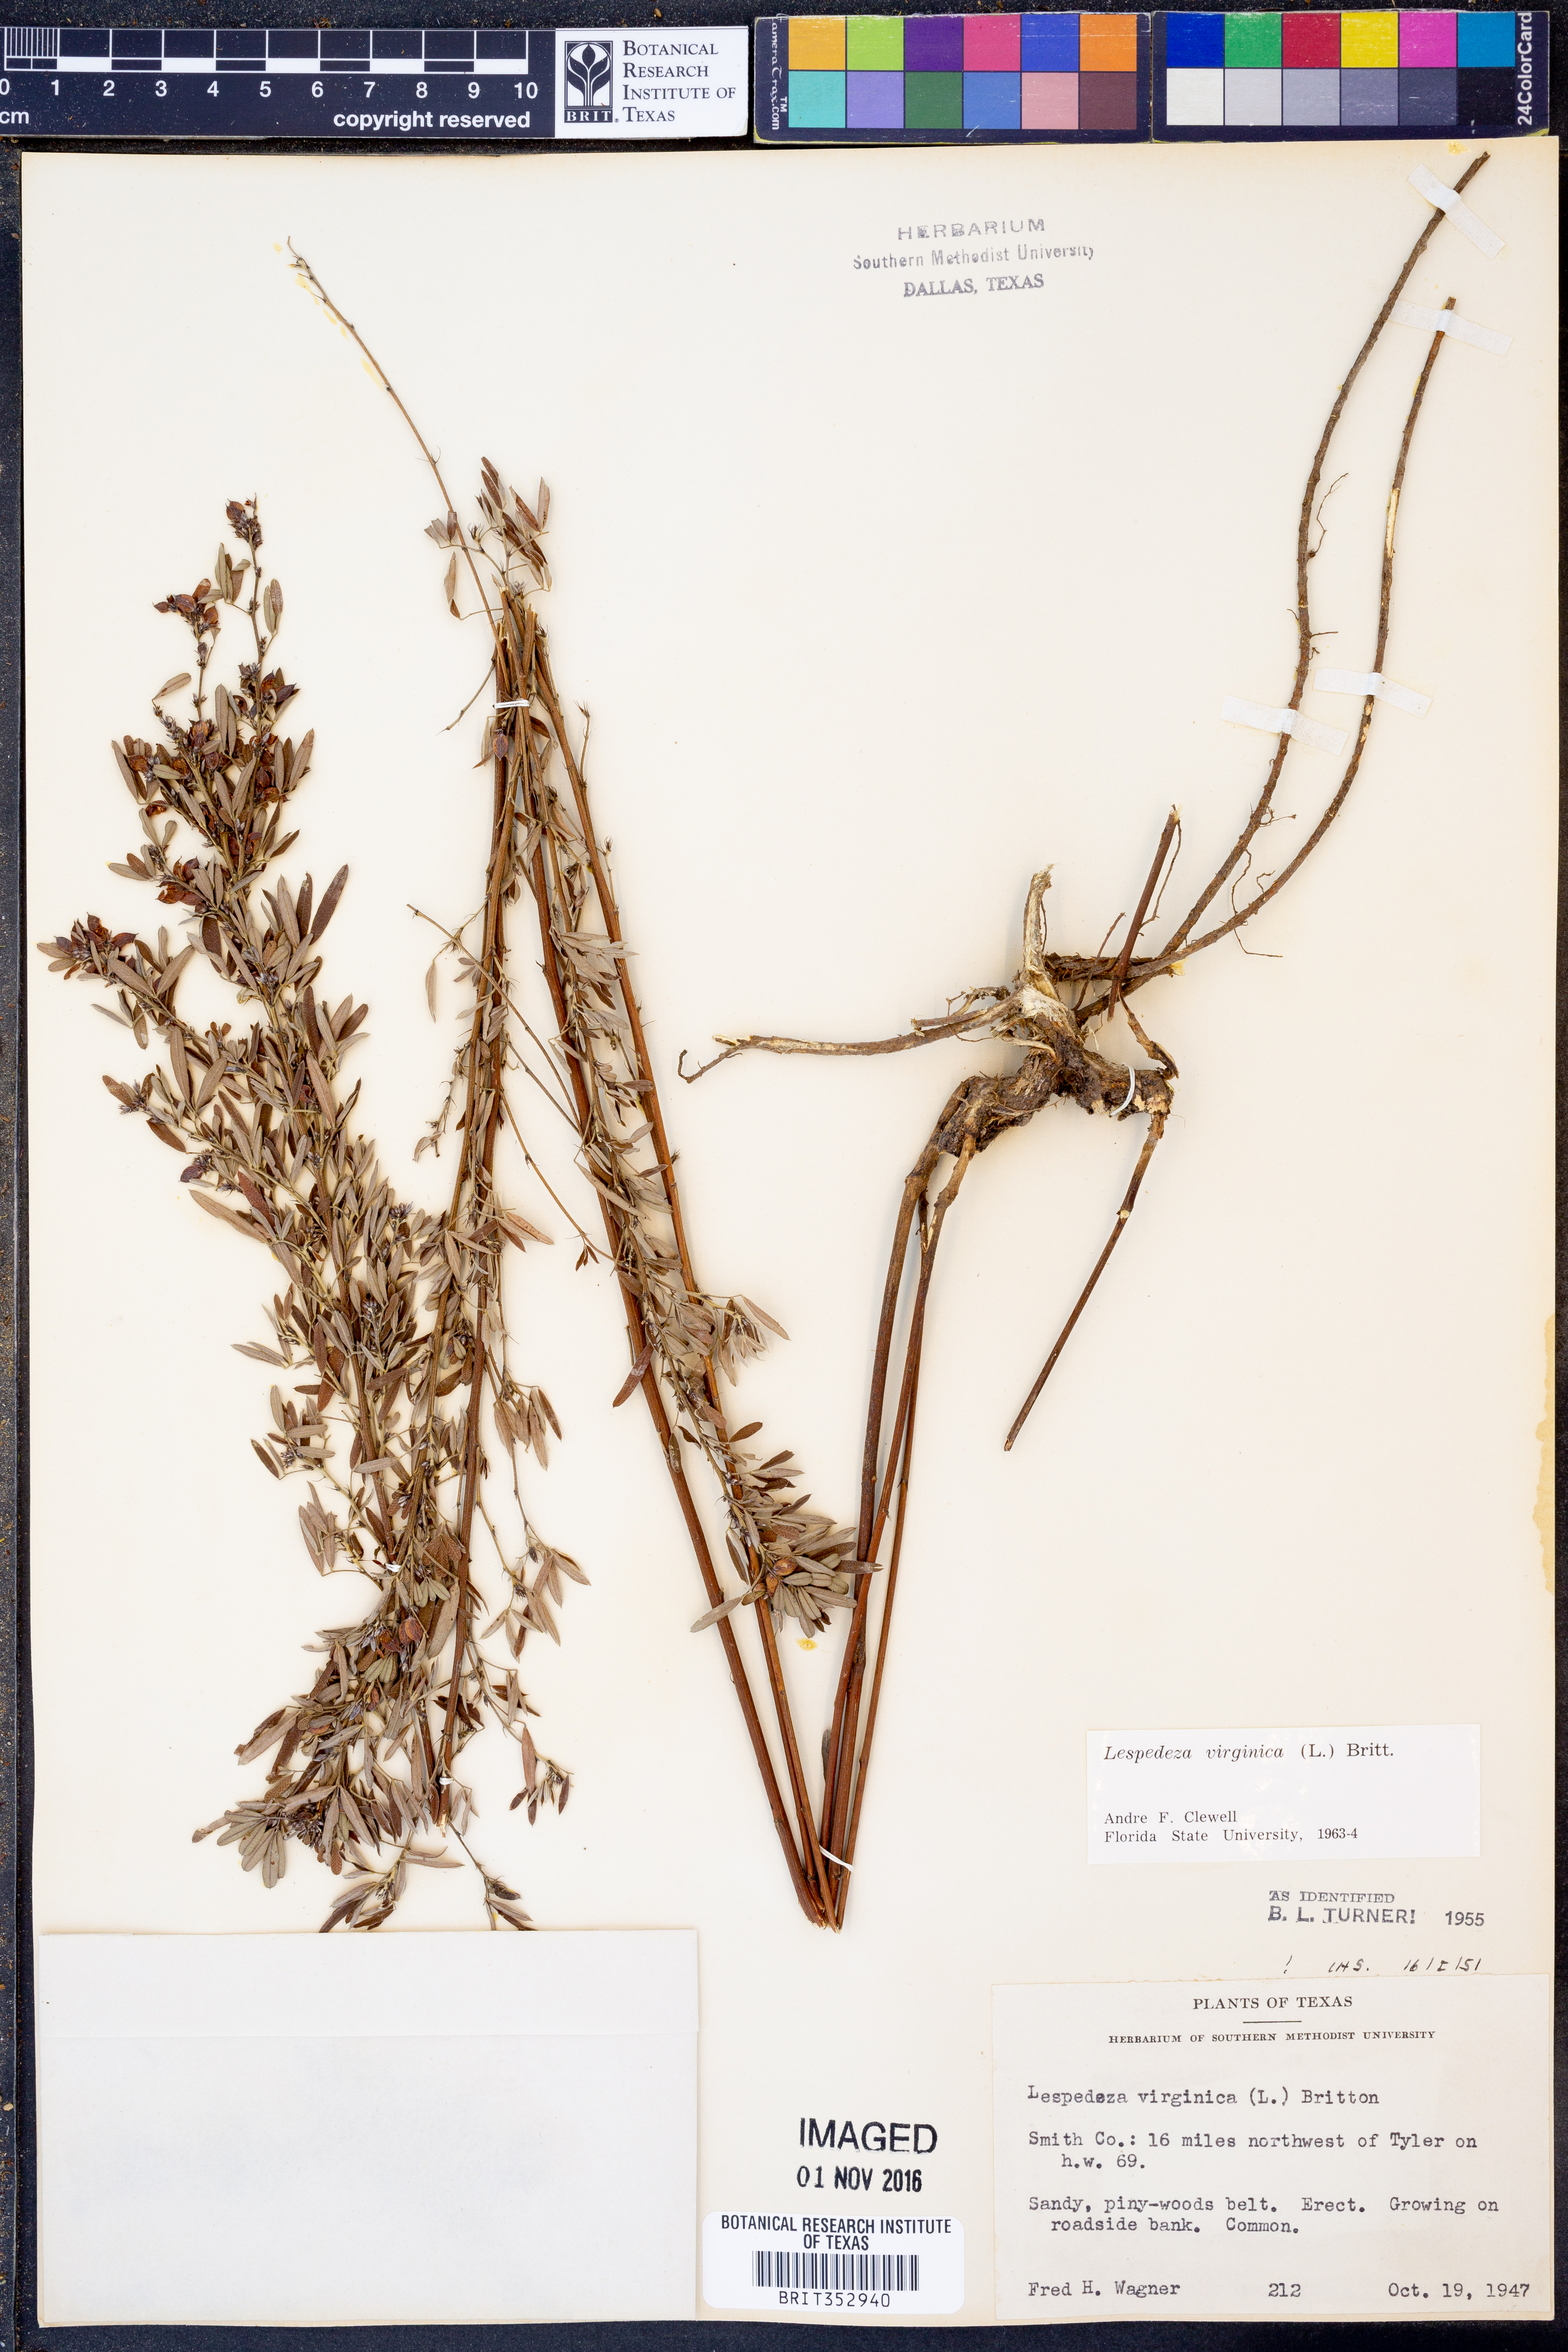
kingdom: Plantae
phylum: Tracheophyta
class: Magnoliopsida
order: Fabales
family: Fabaceae
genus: Lespedeza
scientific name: Lespedeza virginica
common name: Slender bush-clover
